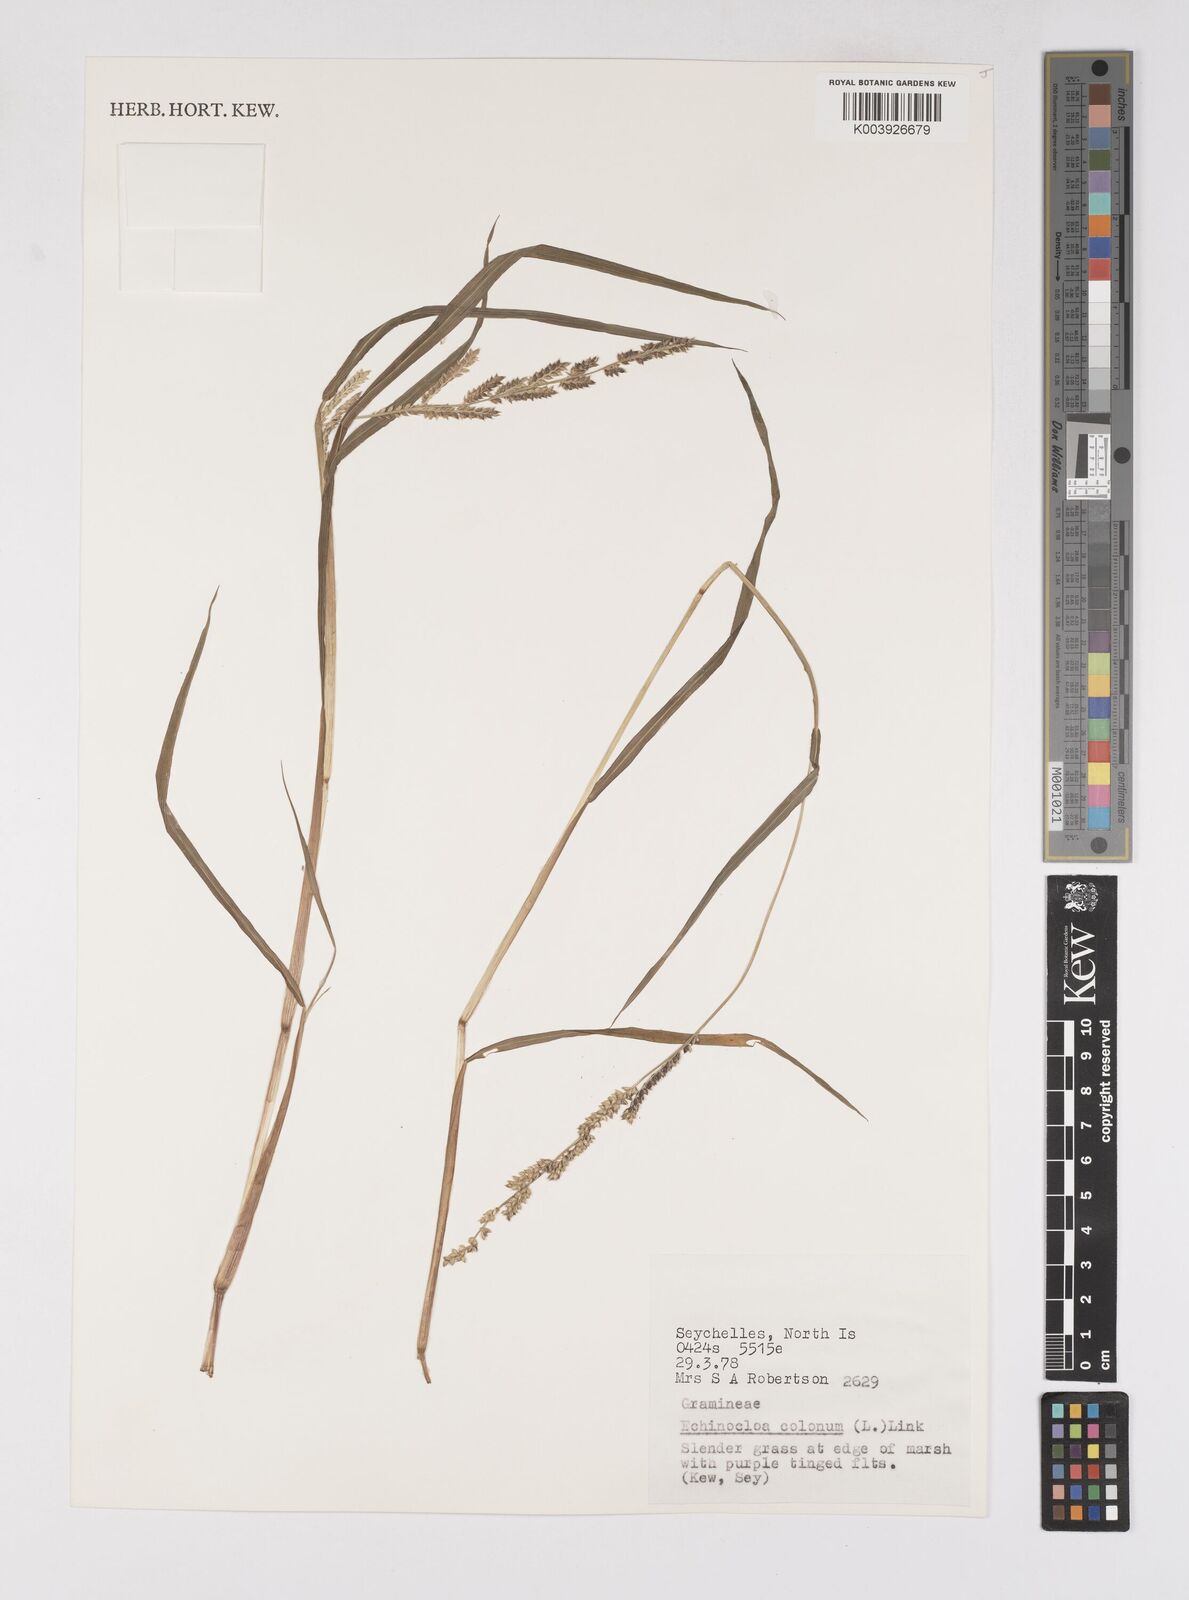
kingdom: Plantae
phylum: Tracheophyta
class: Liliopsida
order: Poales
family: Poaceae
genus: Echinochloa
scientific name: Echinochloa colonum
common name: Jungle rice
